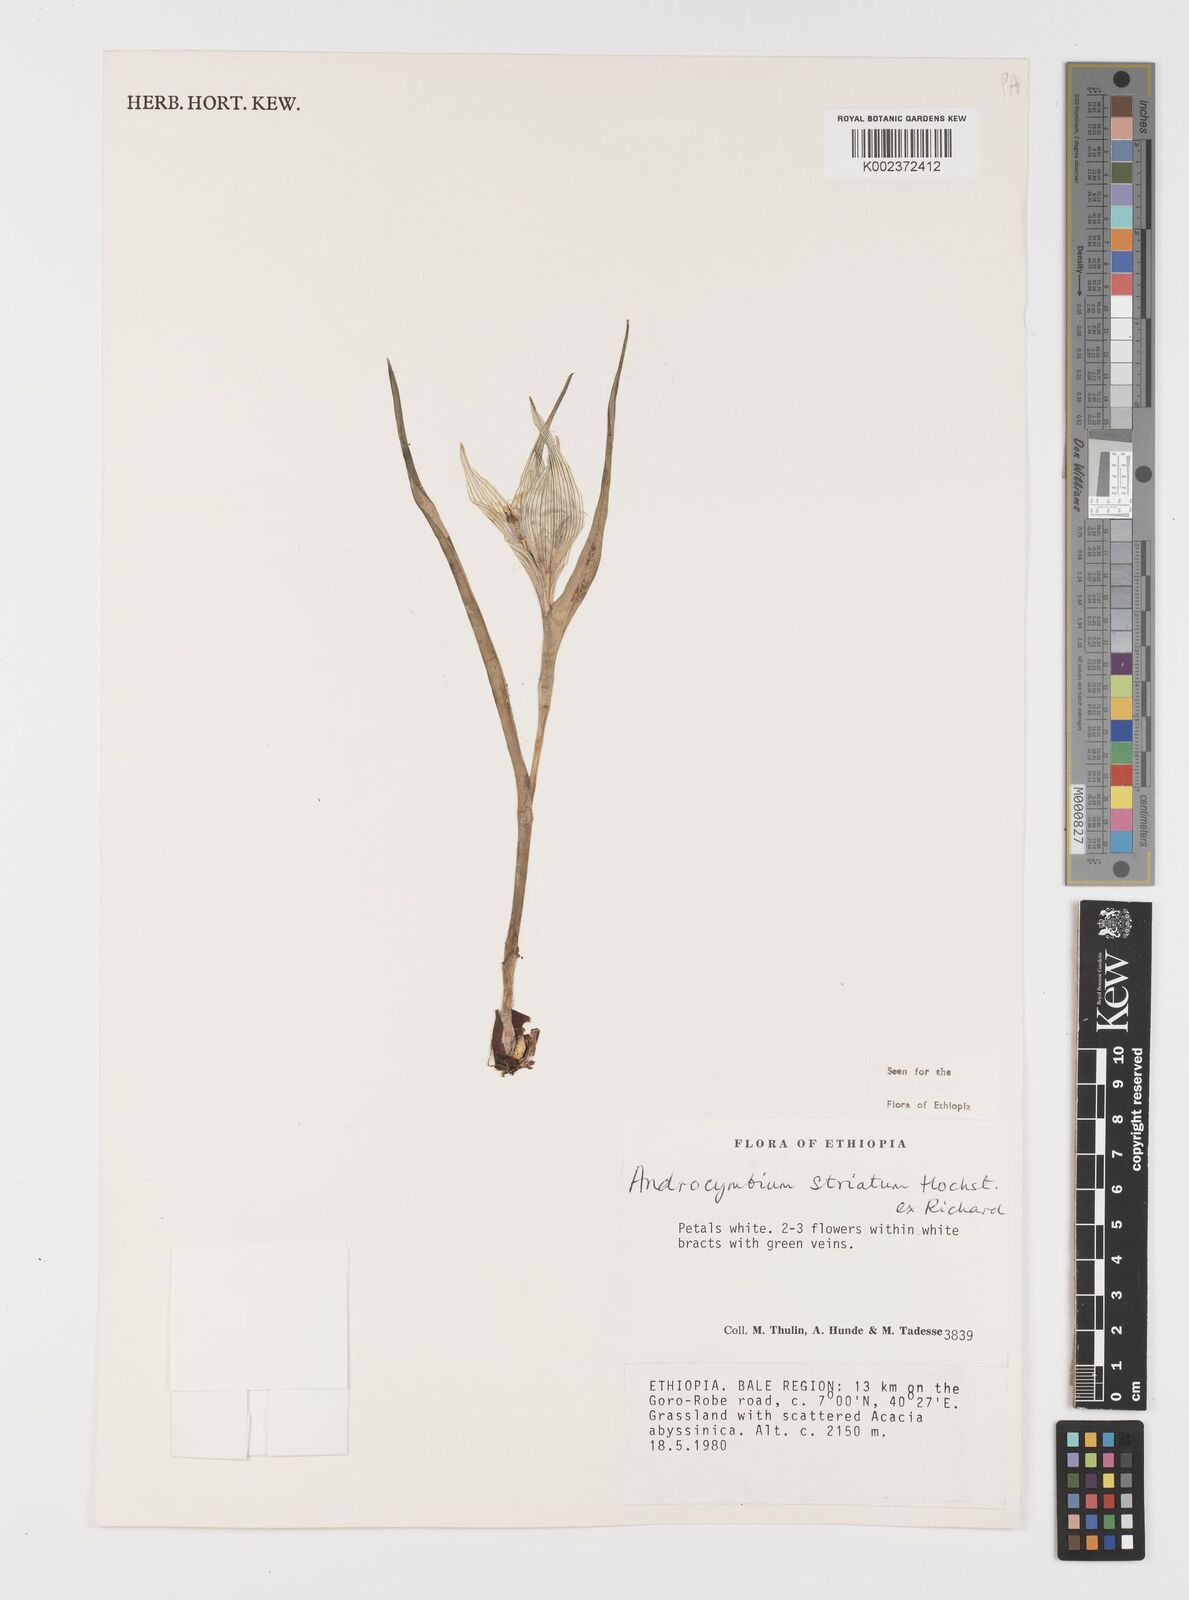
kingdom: Plantae
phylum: Tracheophyta
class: Liliopsida
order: Liliales
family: Colchicaceae
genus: Colchicum
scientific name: Colchicum striatum
